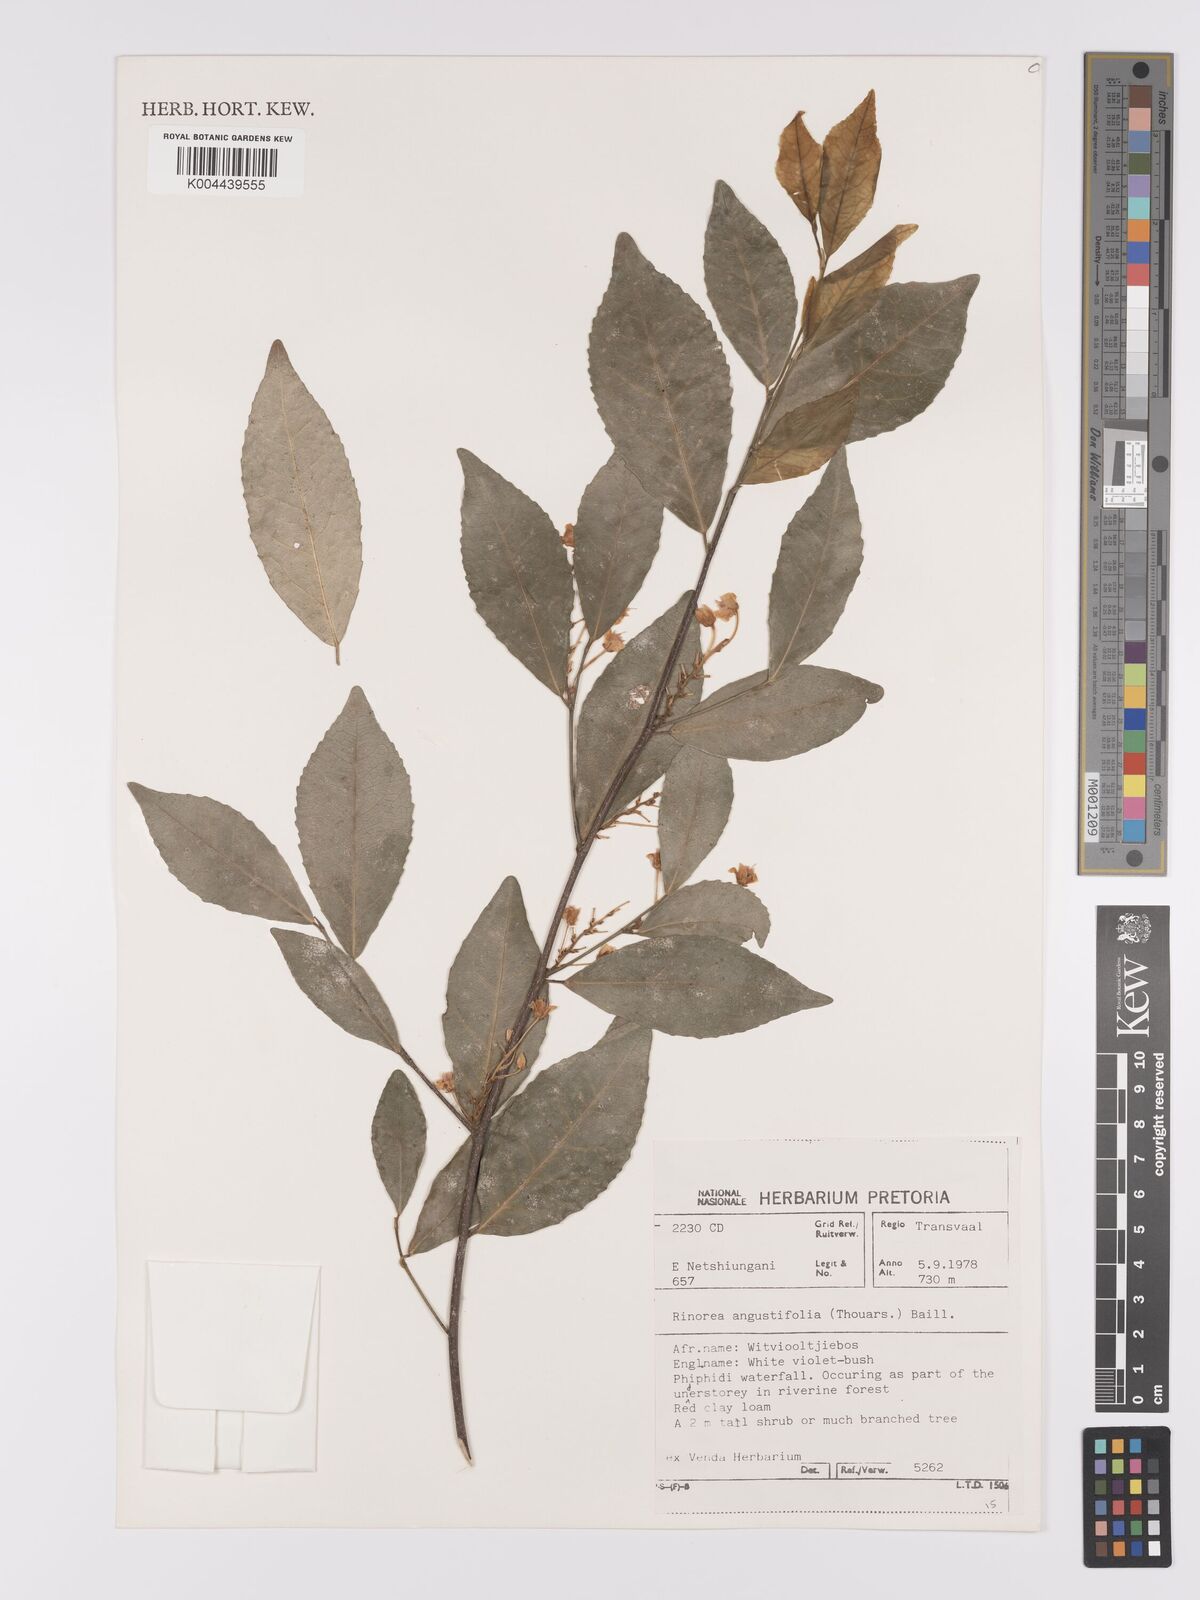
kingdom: Plantae
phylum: Tracheophyta
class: Magnoliopsida
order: Malpighiales
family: Violaceae
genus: Rinorea
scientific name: Rinorea angustifolia
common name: White violet-bush
